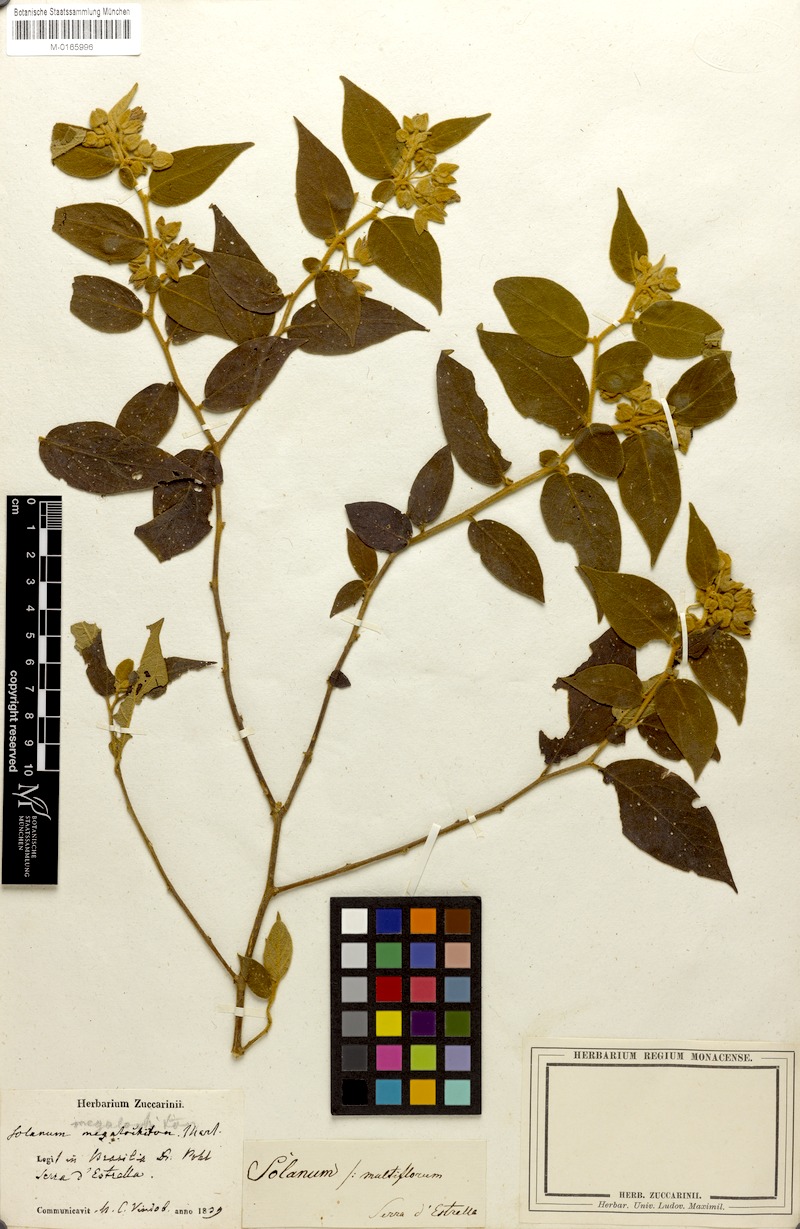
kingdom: Plantae
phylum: Tracheophyta
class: Magnoliopsida
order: Solanales
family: Solanaceae
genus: Solanum
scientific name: Solanum megalochiton
